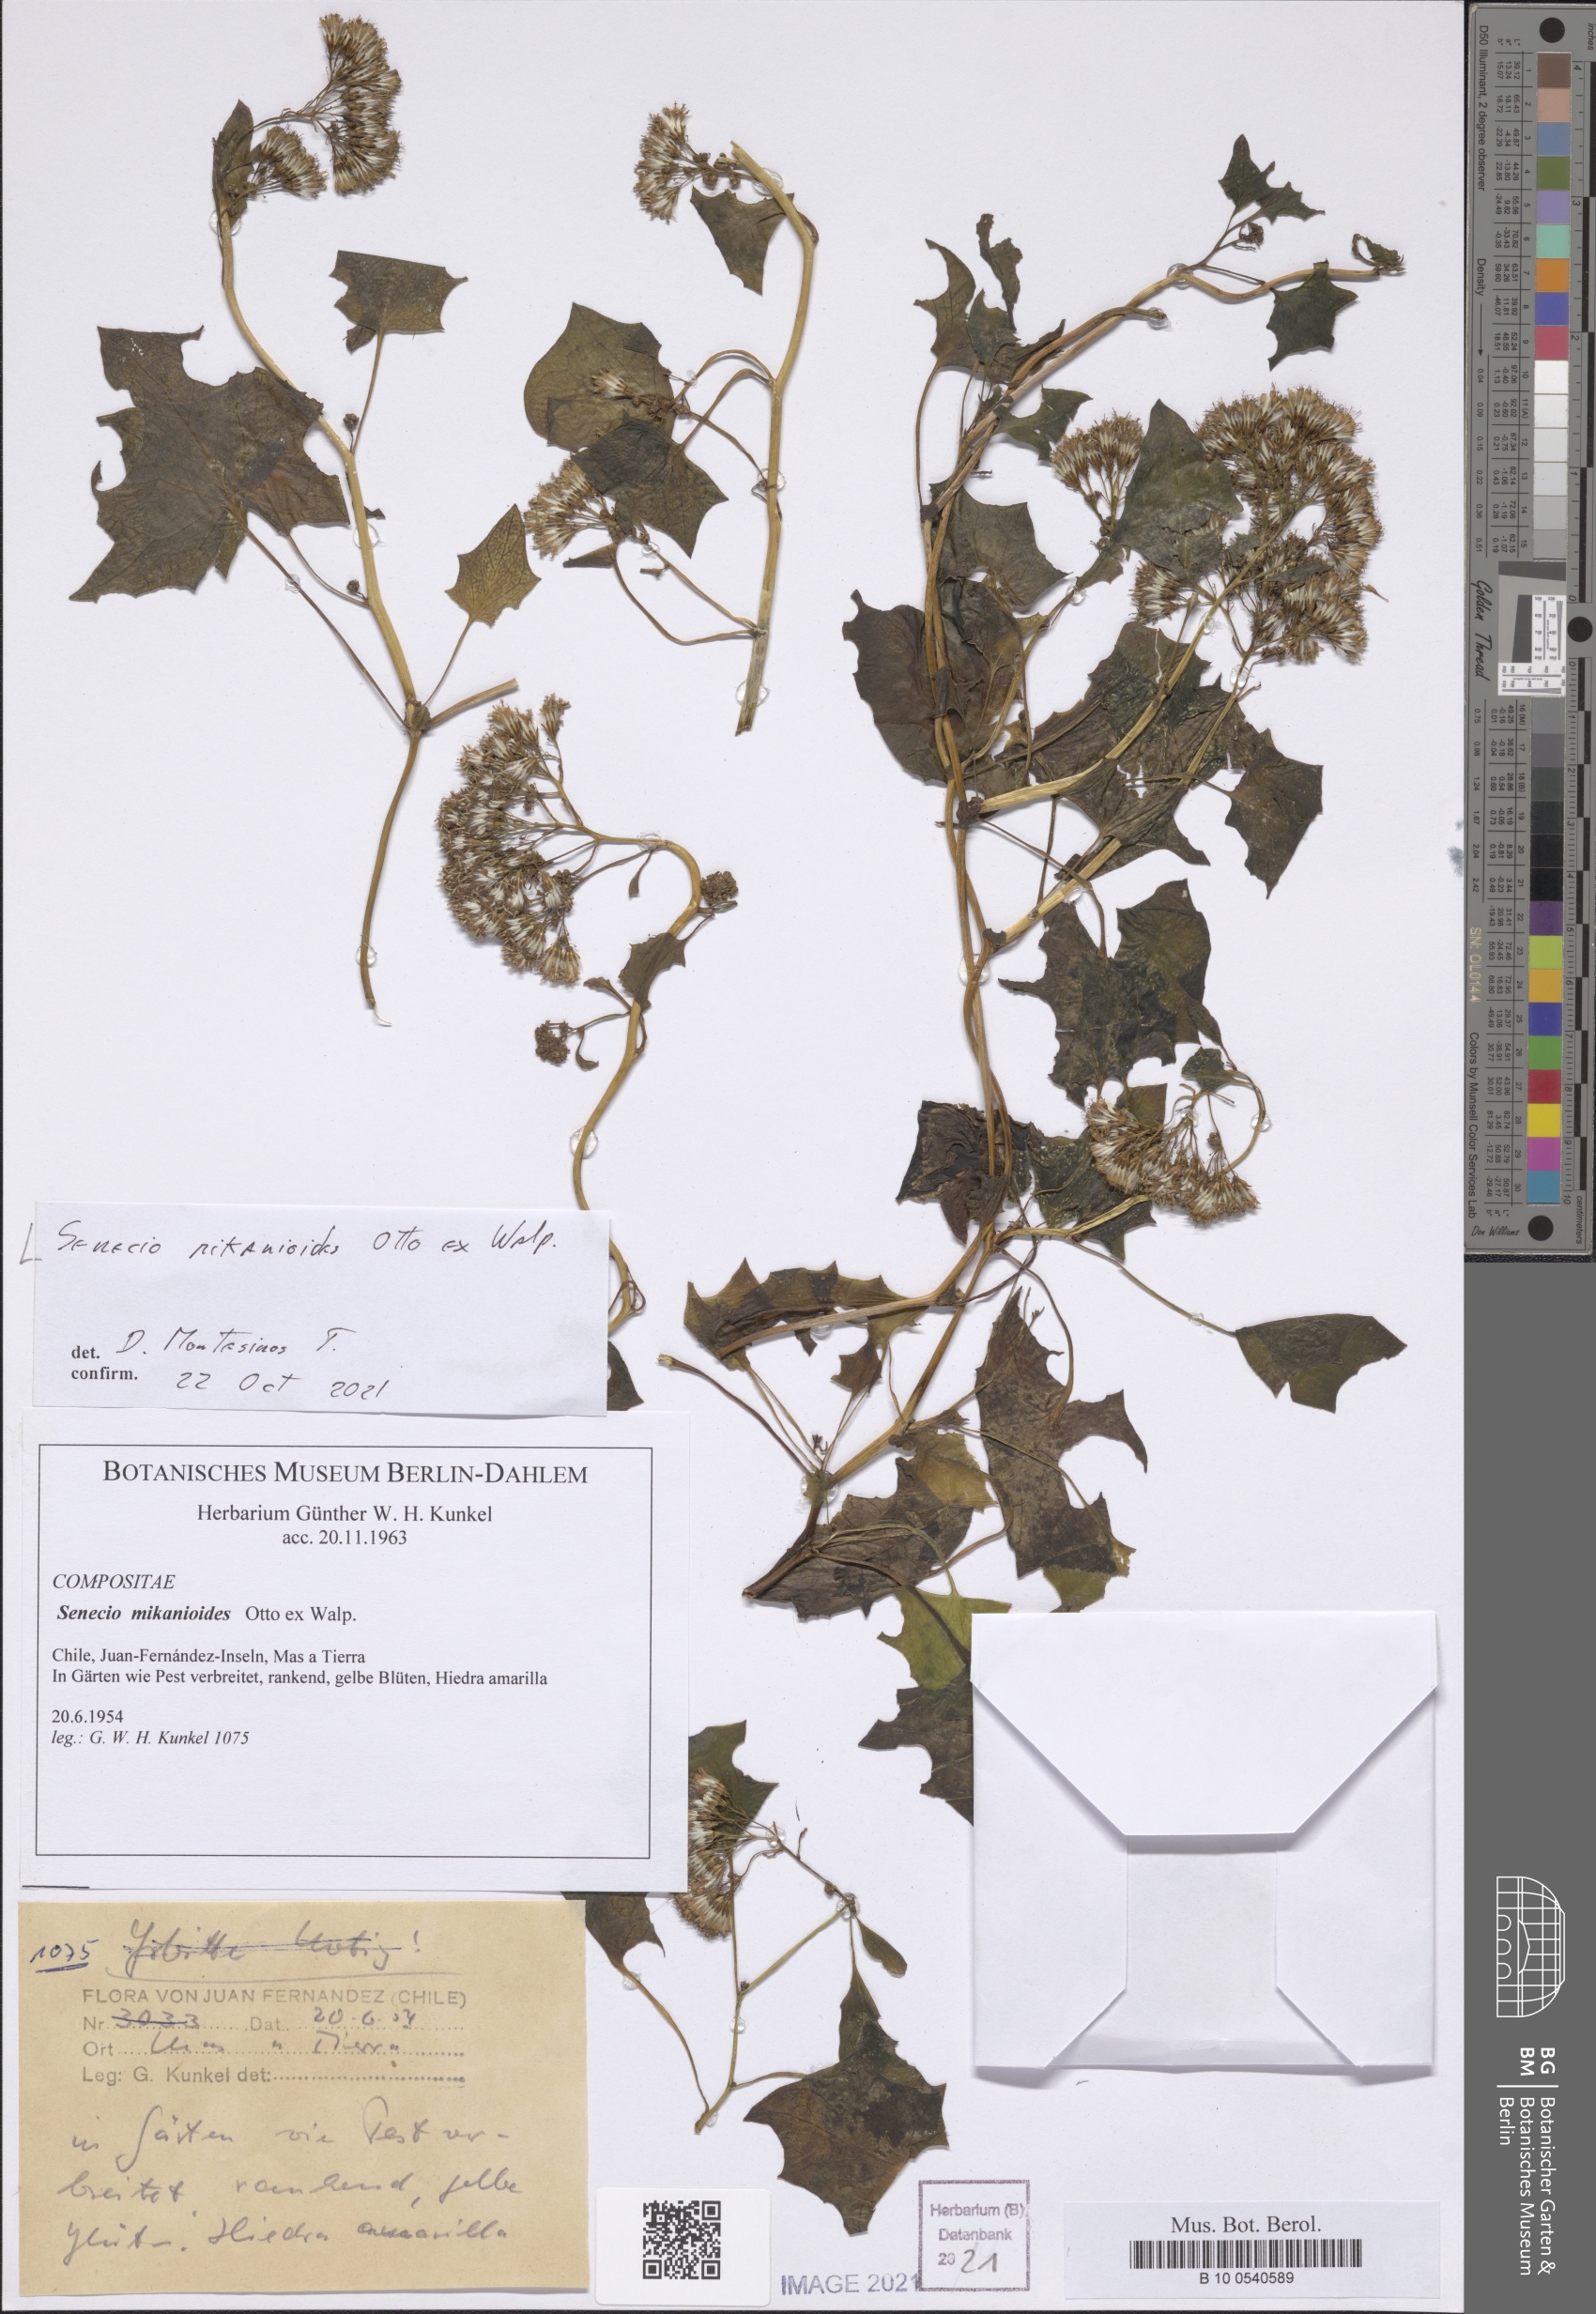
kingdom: Plantae
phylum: Tracheophyta
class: Magnoliopsida
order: Asterales
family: Asteraceae
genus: Delairea
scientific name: Delairea odorata
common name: Cape-ivy
